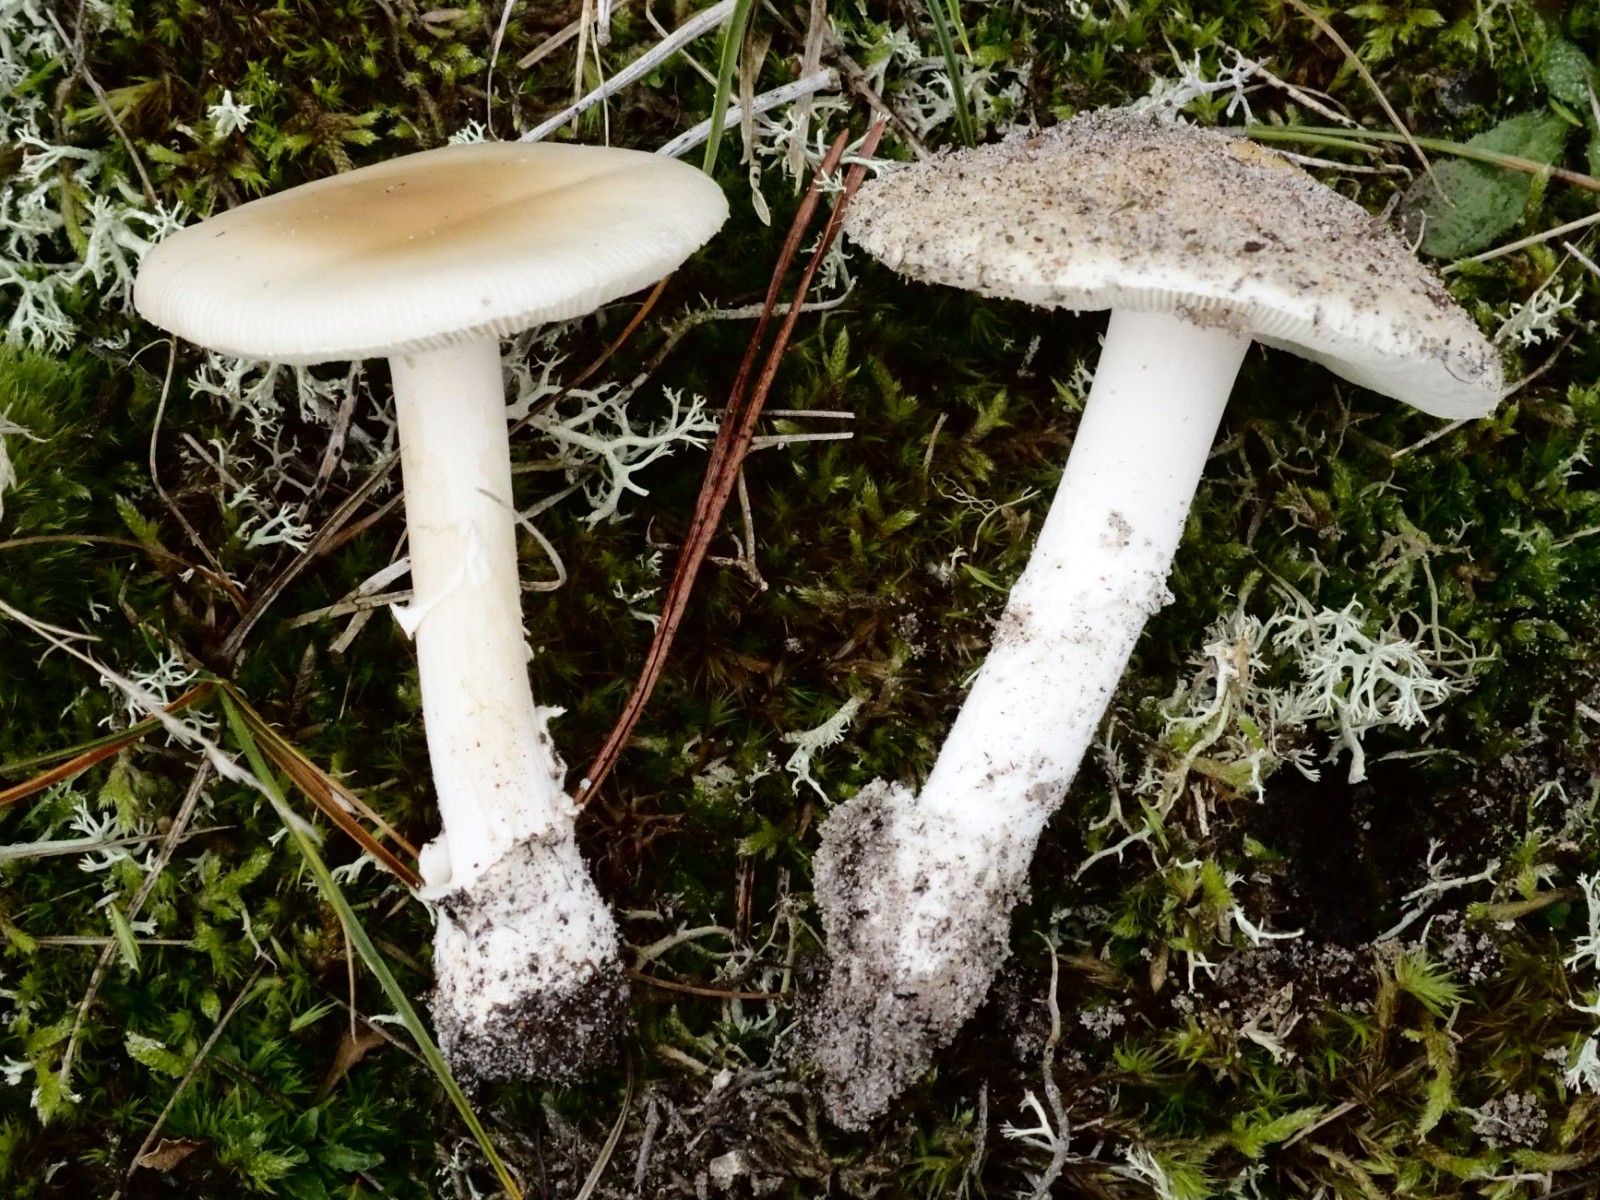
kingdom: Fungi
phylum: Basidiomycota
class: Agaricomycetes
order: Agaricales
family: Amanitaceae
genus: Amanita
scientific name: Amanita gemmata
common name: okkergul fluesvamp
